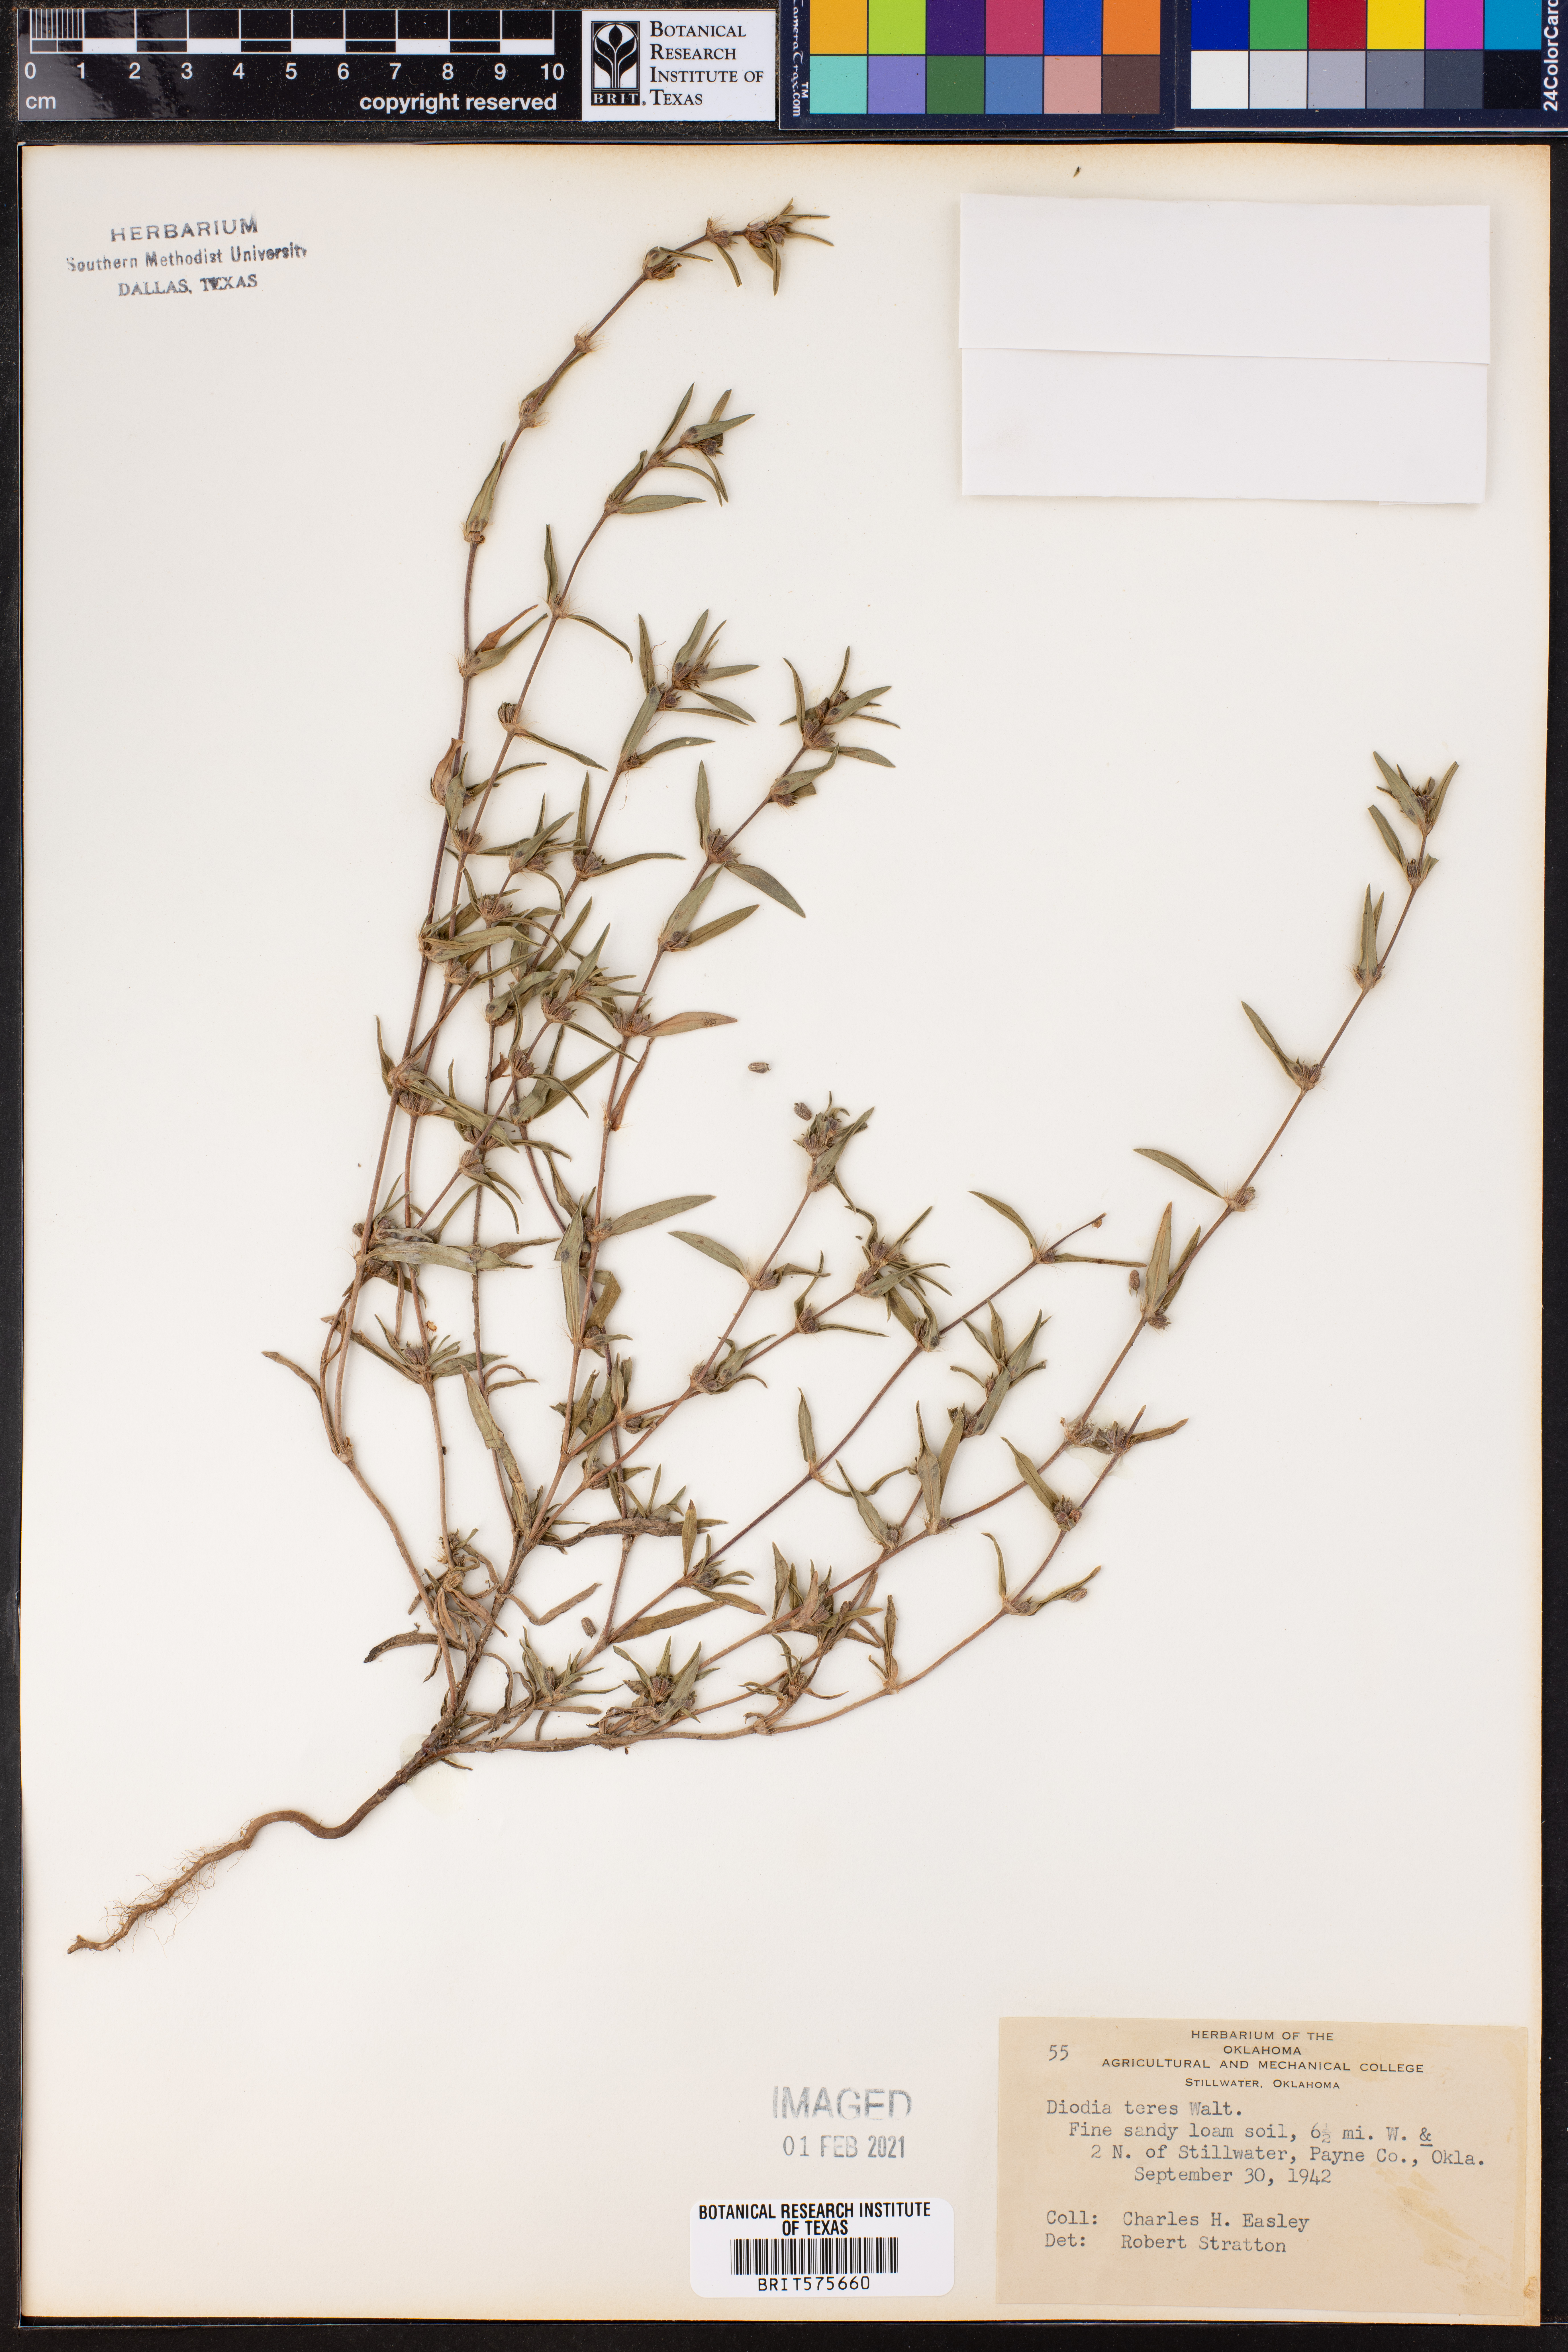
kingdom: Plantae
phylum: Tracheophyta
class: Magnoliopsida
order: Gentianales
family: Rubiaceae
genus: Hexasepalum
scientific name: Hexasepalum teres
